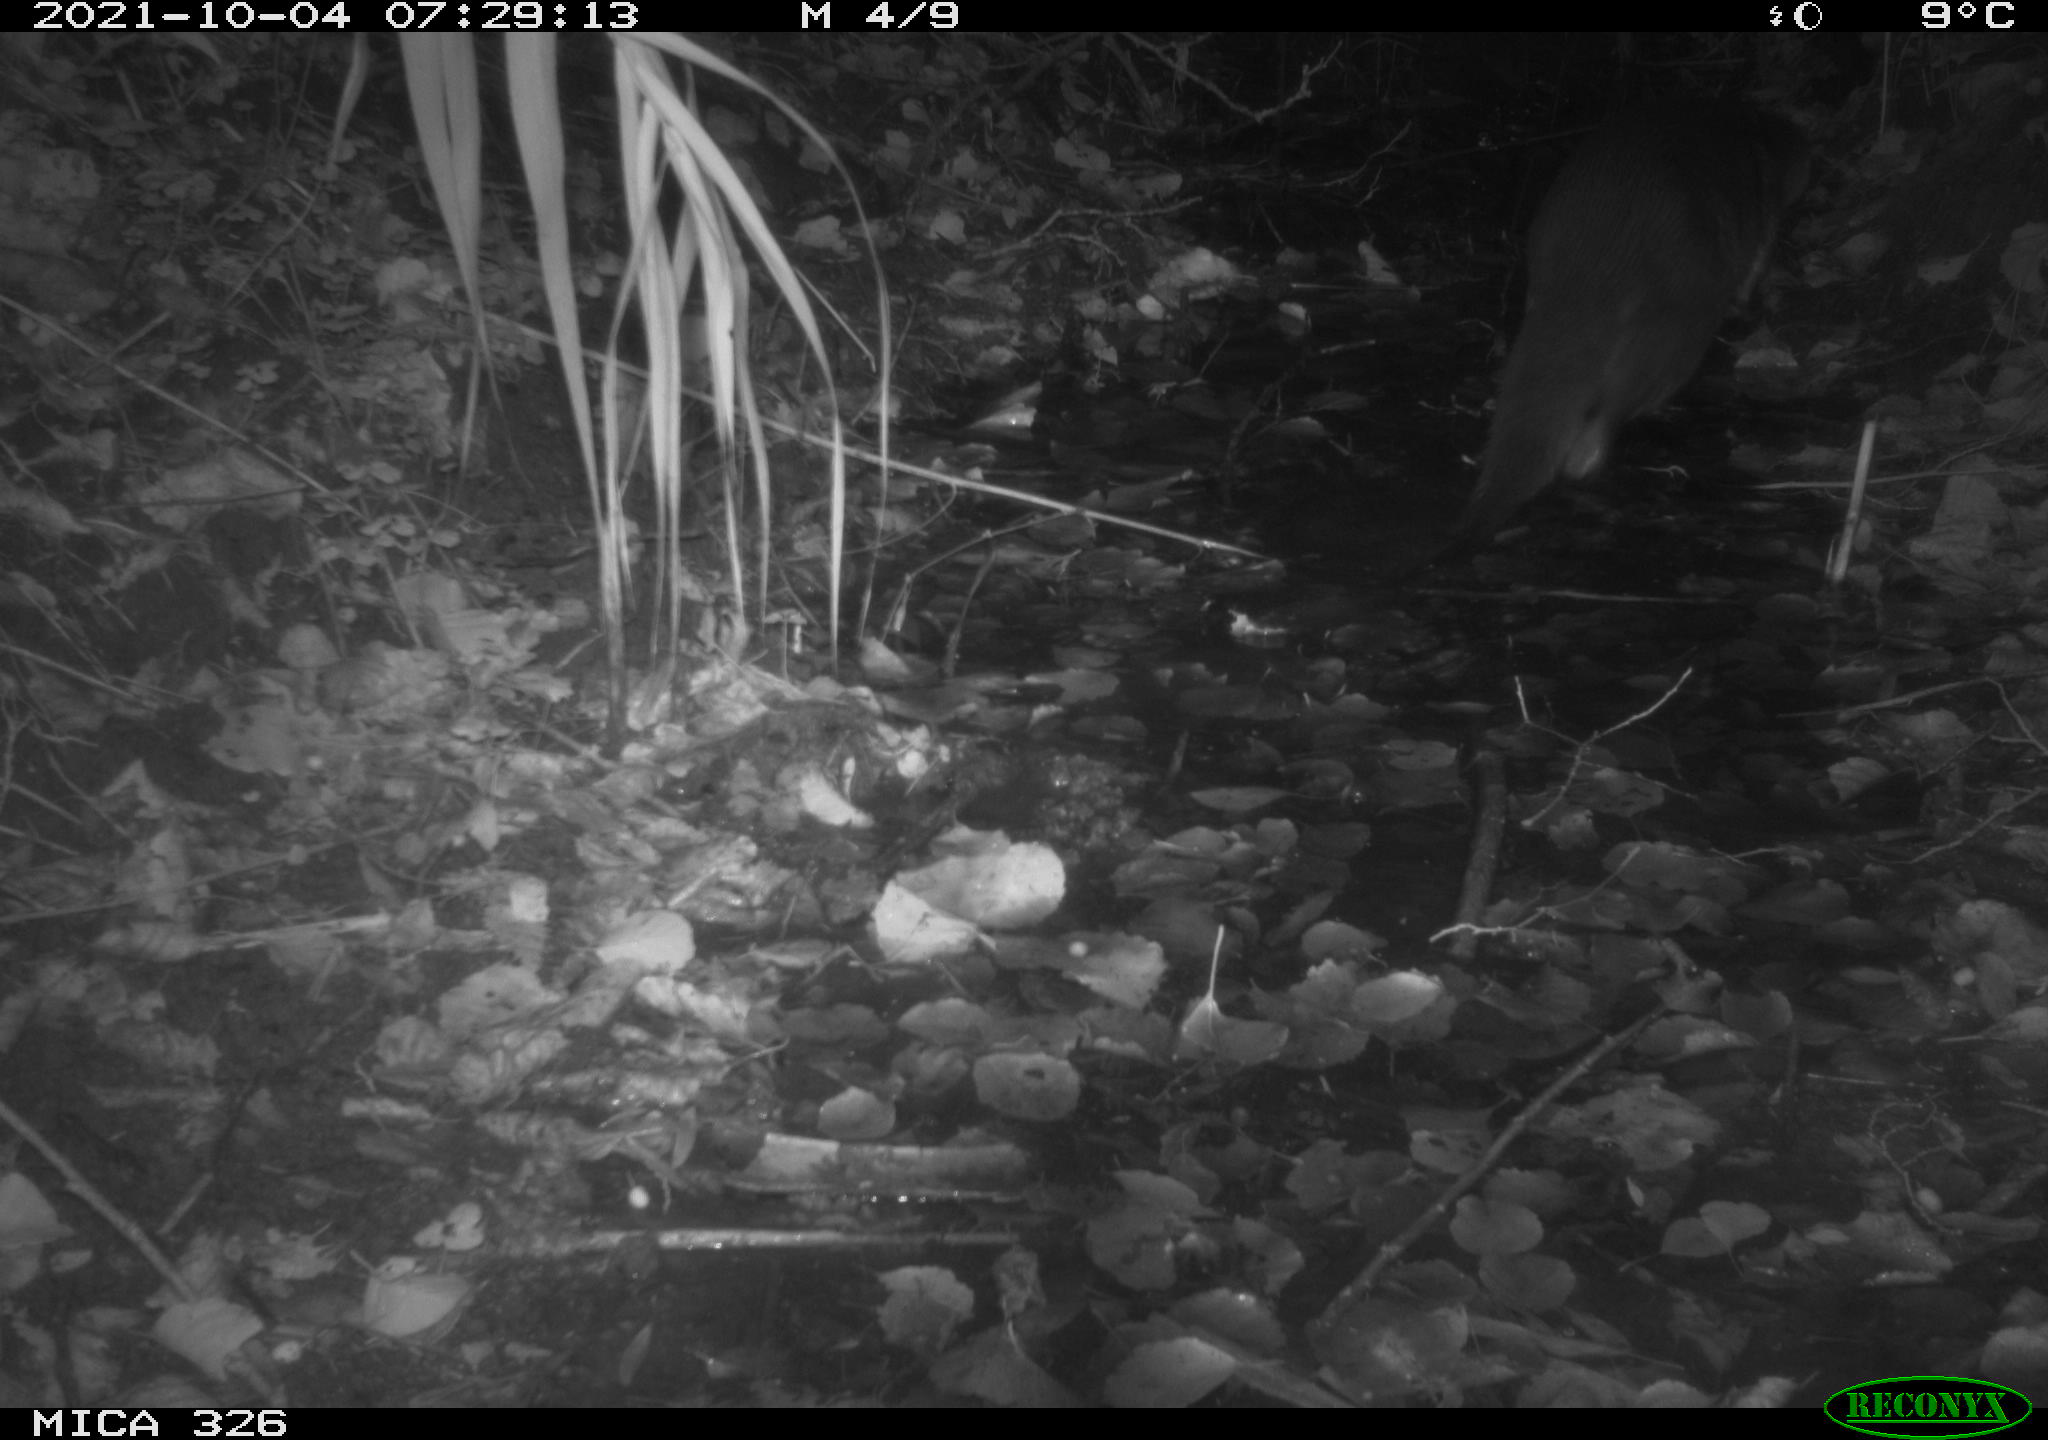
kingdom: Animalia
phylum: Chordata
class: Mammalia
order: Carnivora
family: Mustelidae
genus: Lutra
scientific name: Lutra lutra
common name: European otter
